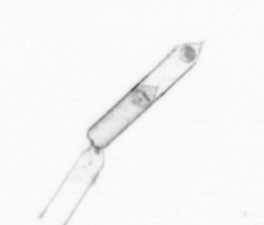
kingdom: Chromista
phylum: Ochrophyta
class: Bacillariophyceae
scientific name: Bacillariophyceae
